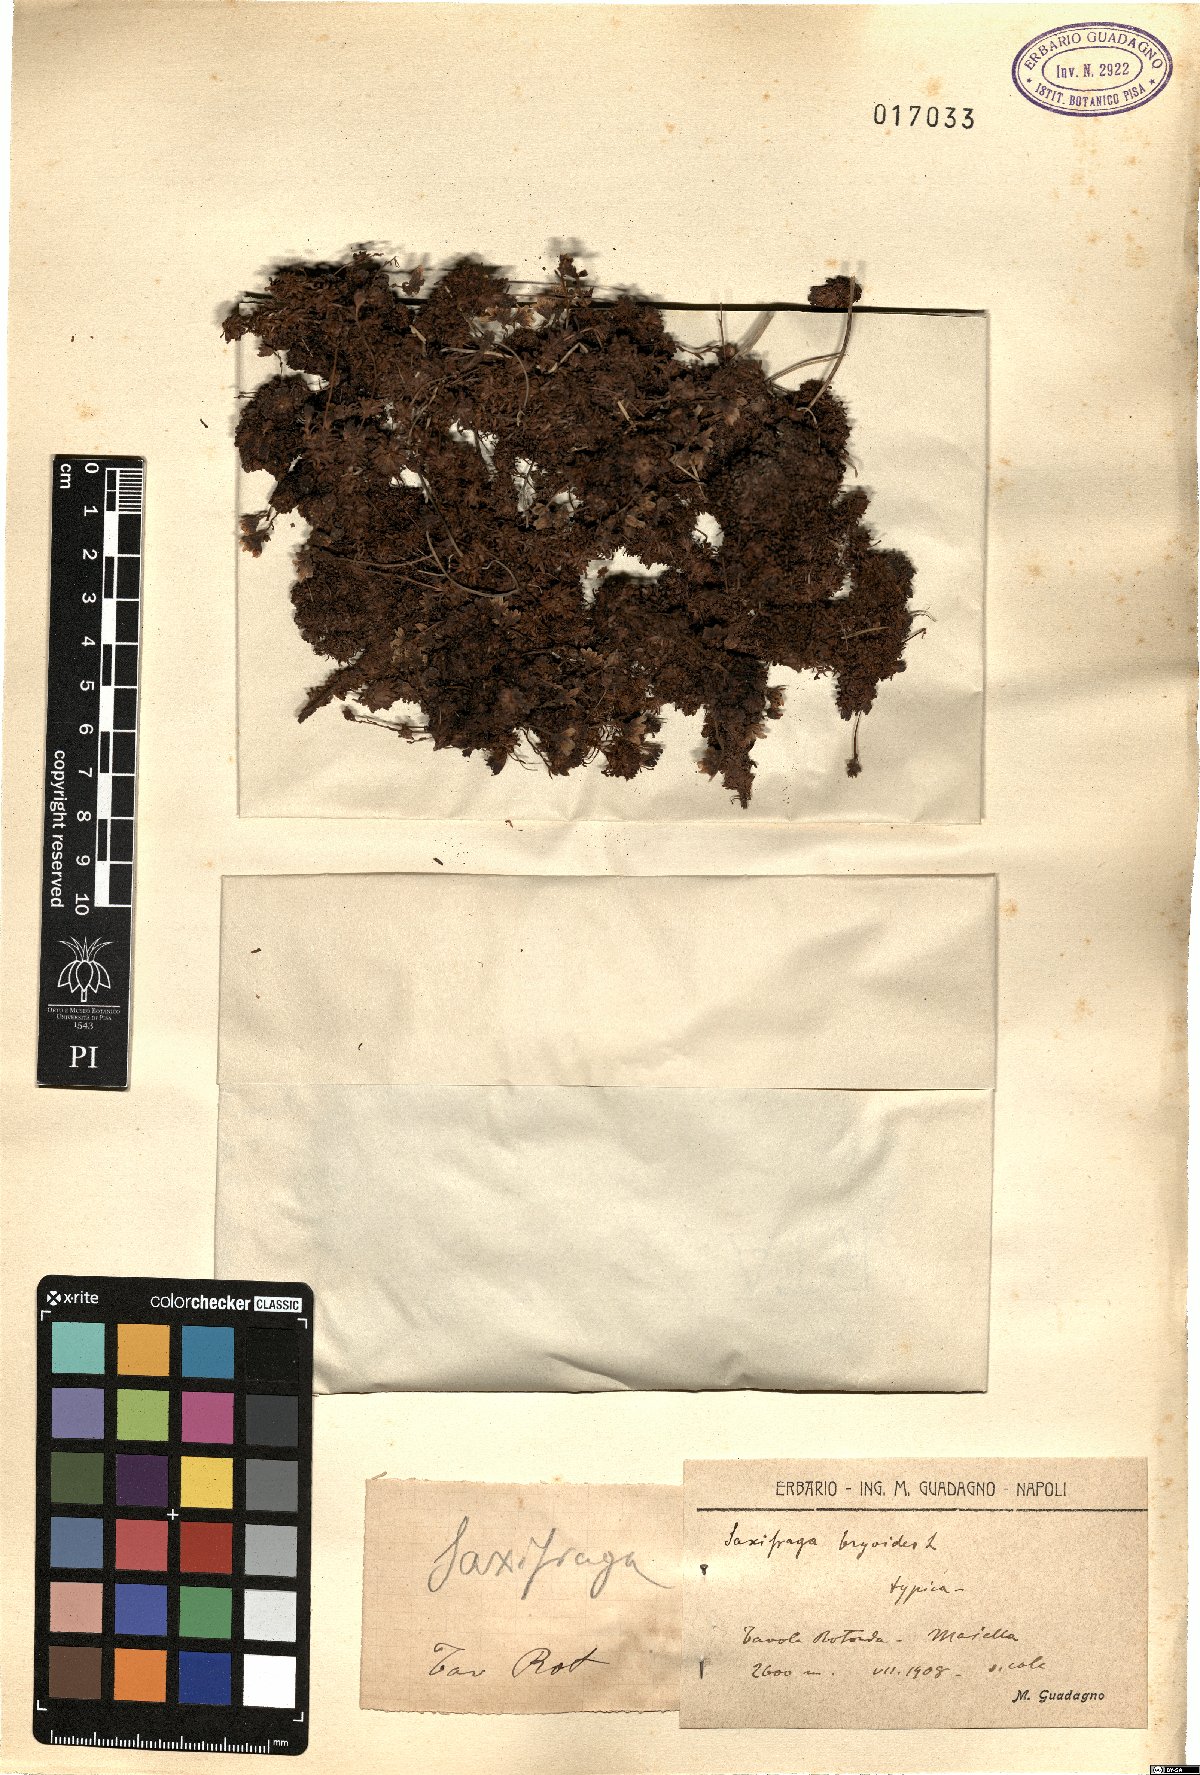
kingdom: Plantae
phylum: Tracheophyta
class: Magnoliopsida
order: Saxifragales
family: Saxifragaceae
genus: Saxifraga
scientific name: Saxifraga bryoides
